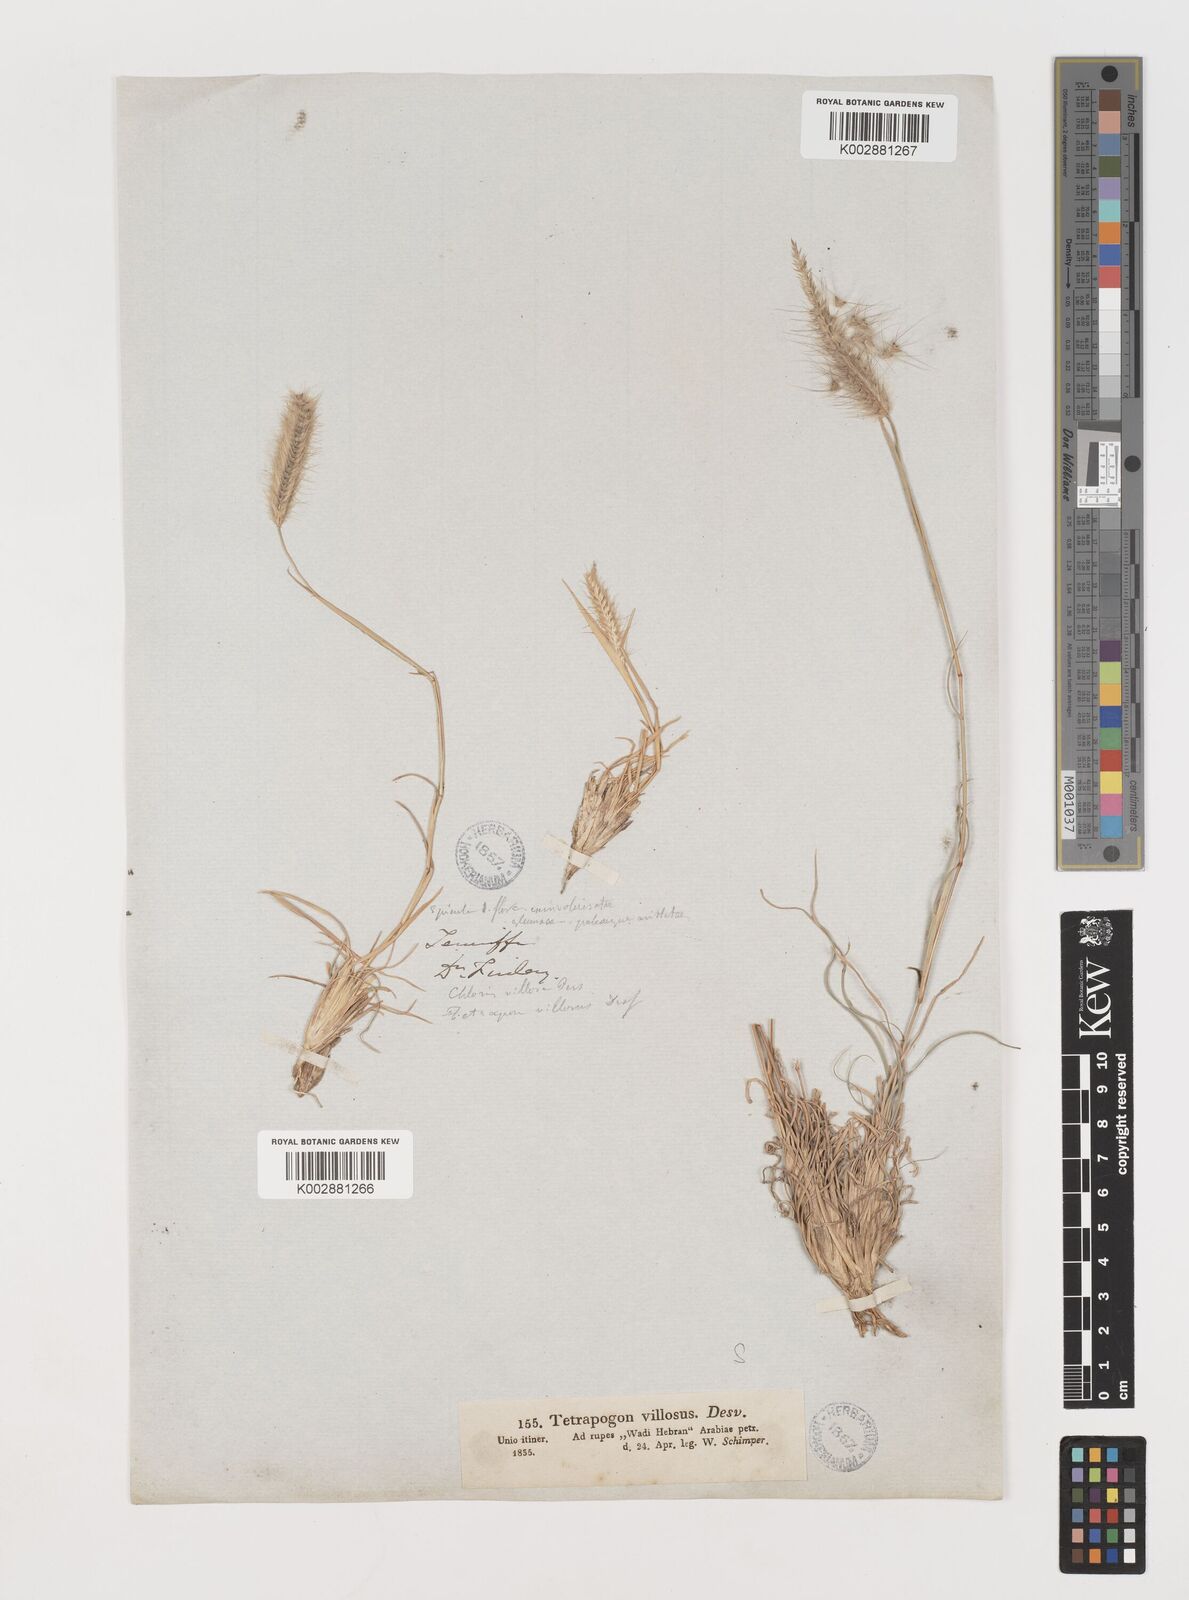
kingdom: Plantae
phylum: Tracheophyta
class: Liliopsida
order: Poales
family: Poaceae
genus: Tetrapogon
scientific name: Tetrapogon villosus
